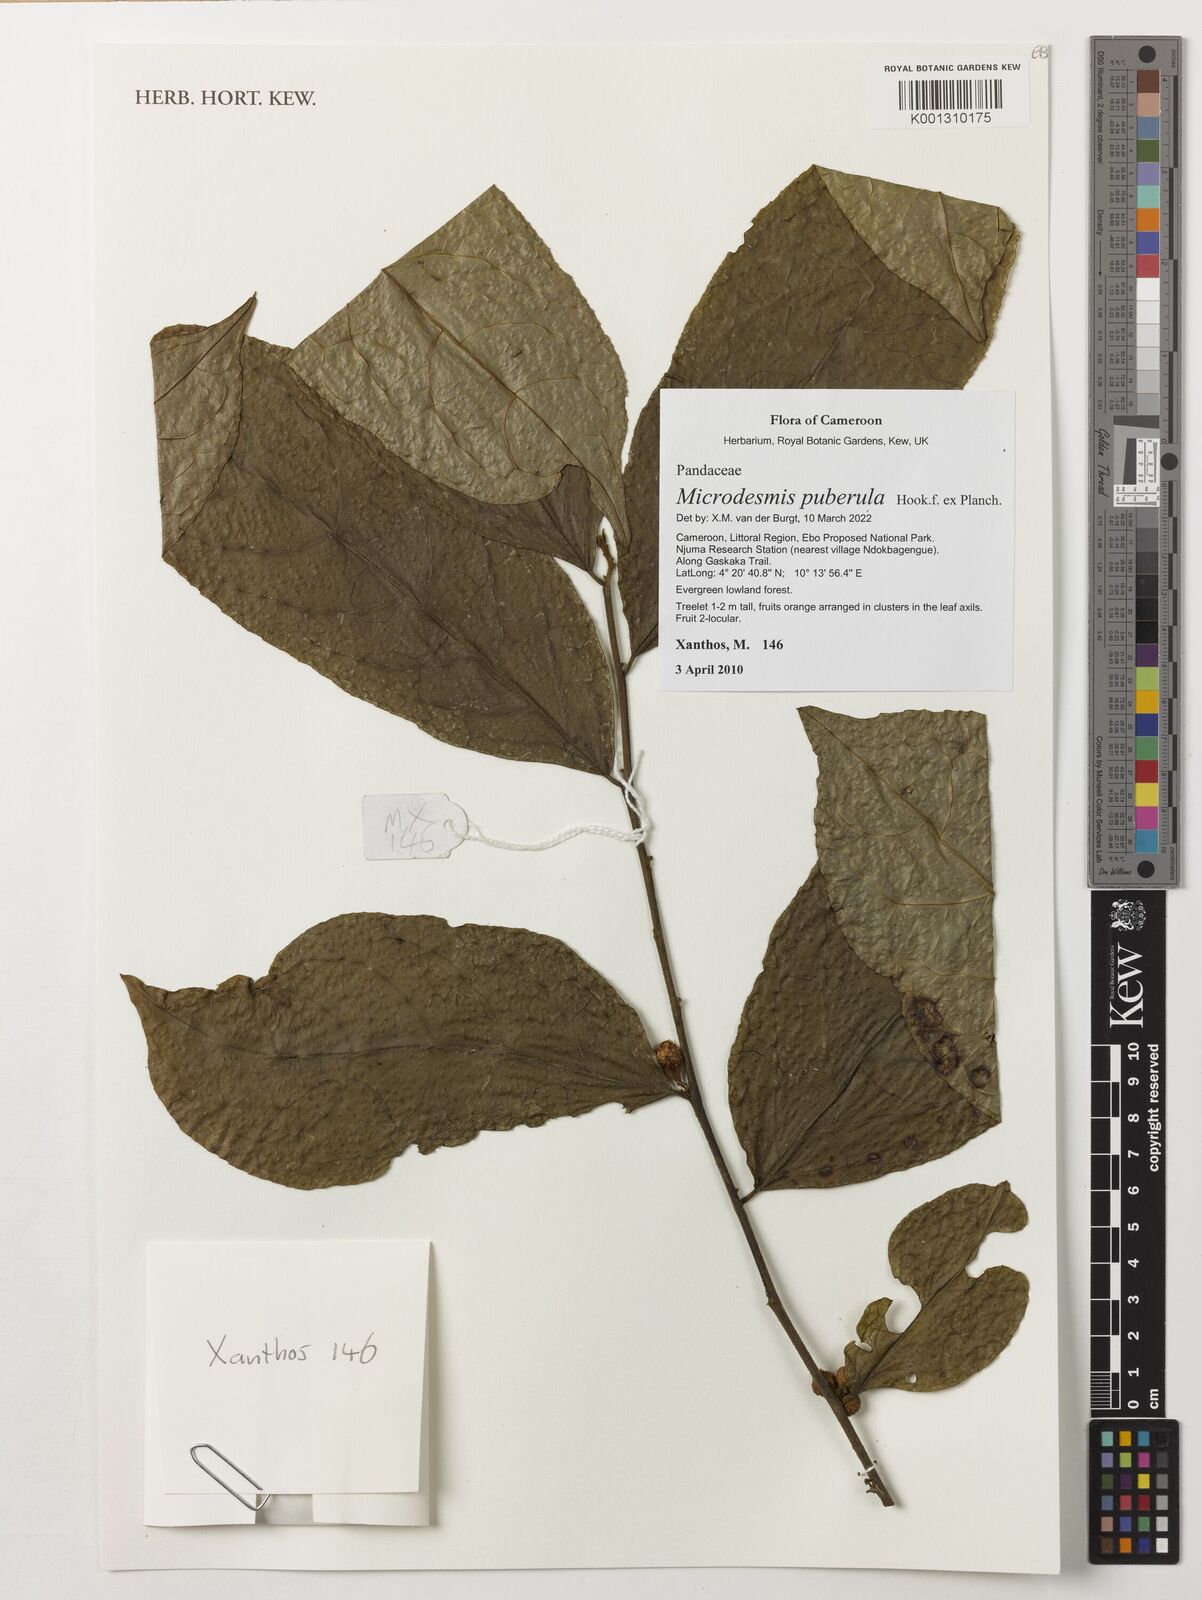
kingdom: Plantae
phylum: Tracheophyta
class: Magnoliopsida
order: Malpighiales
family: Pandaceae
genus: Microdesmis
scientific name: Microdesmis puberula
